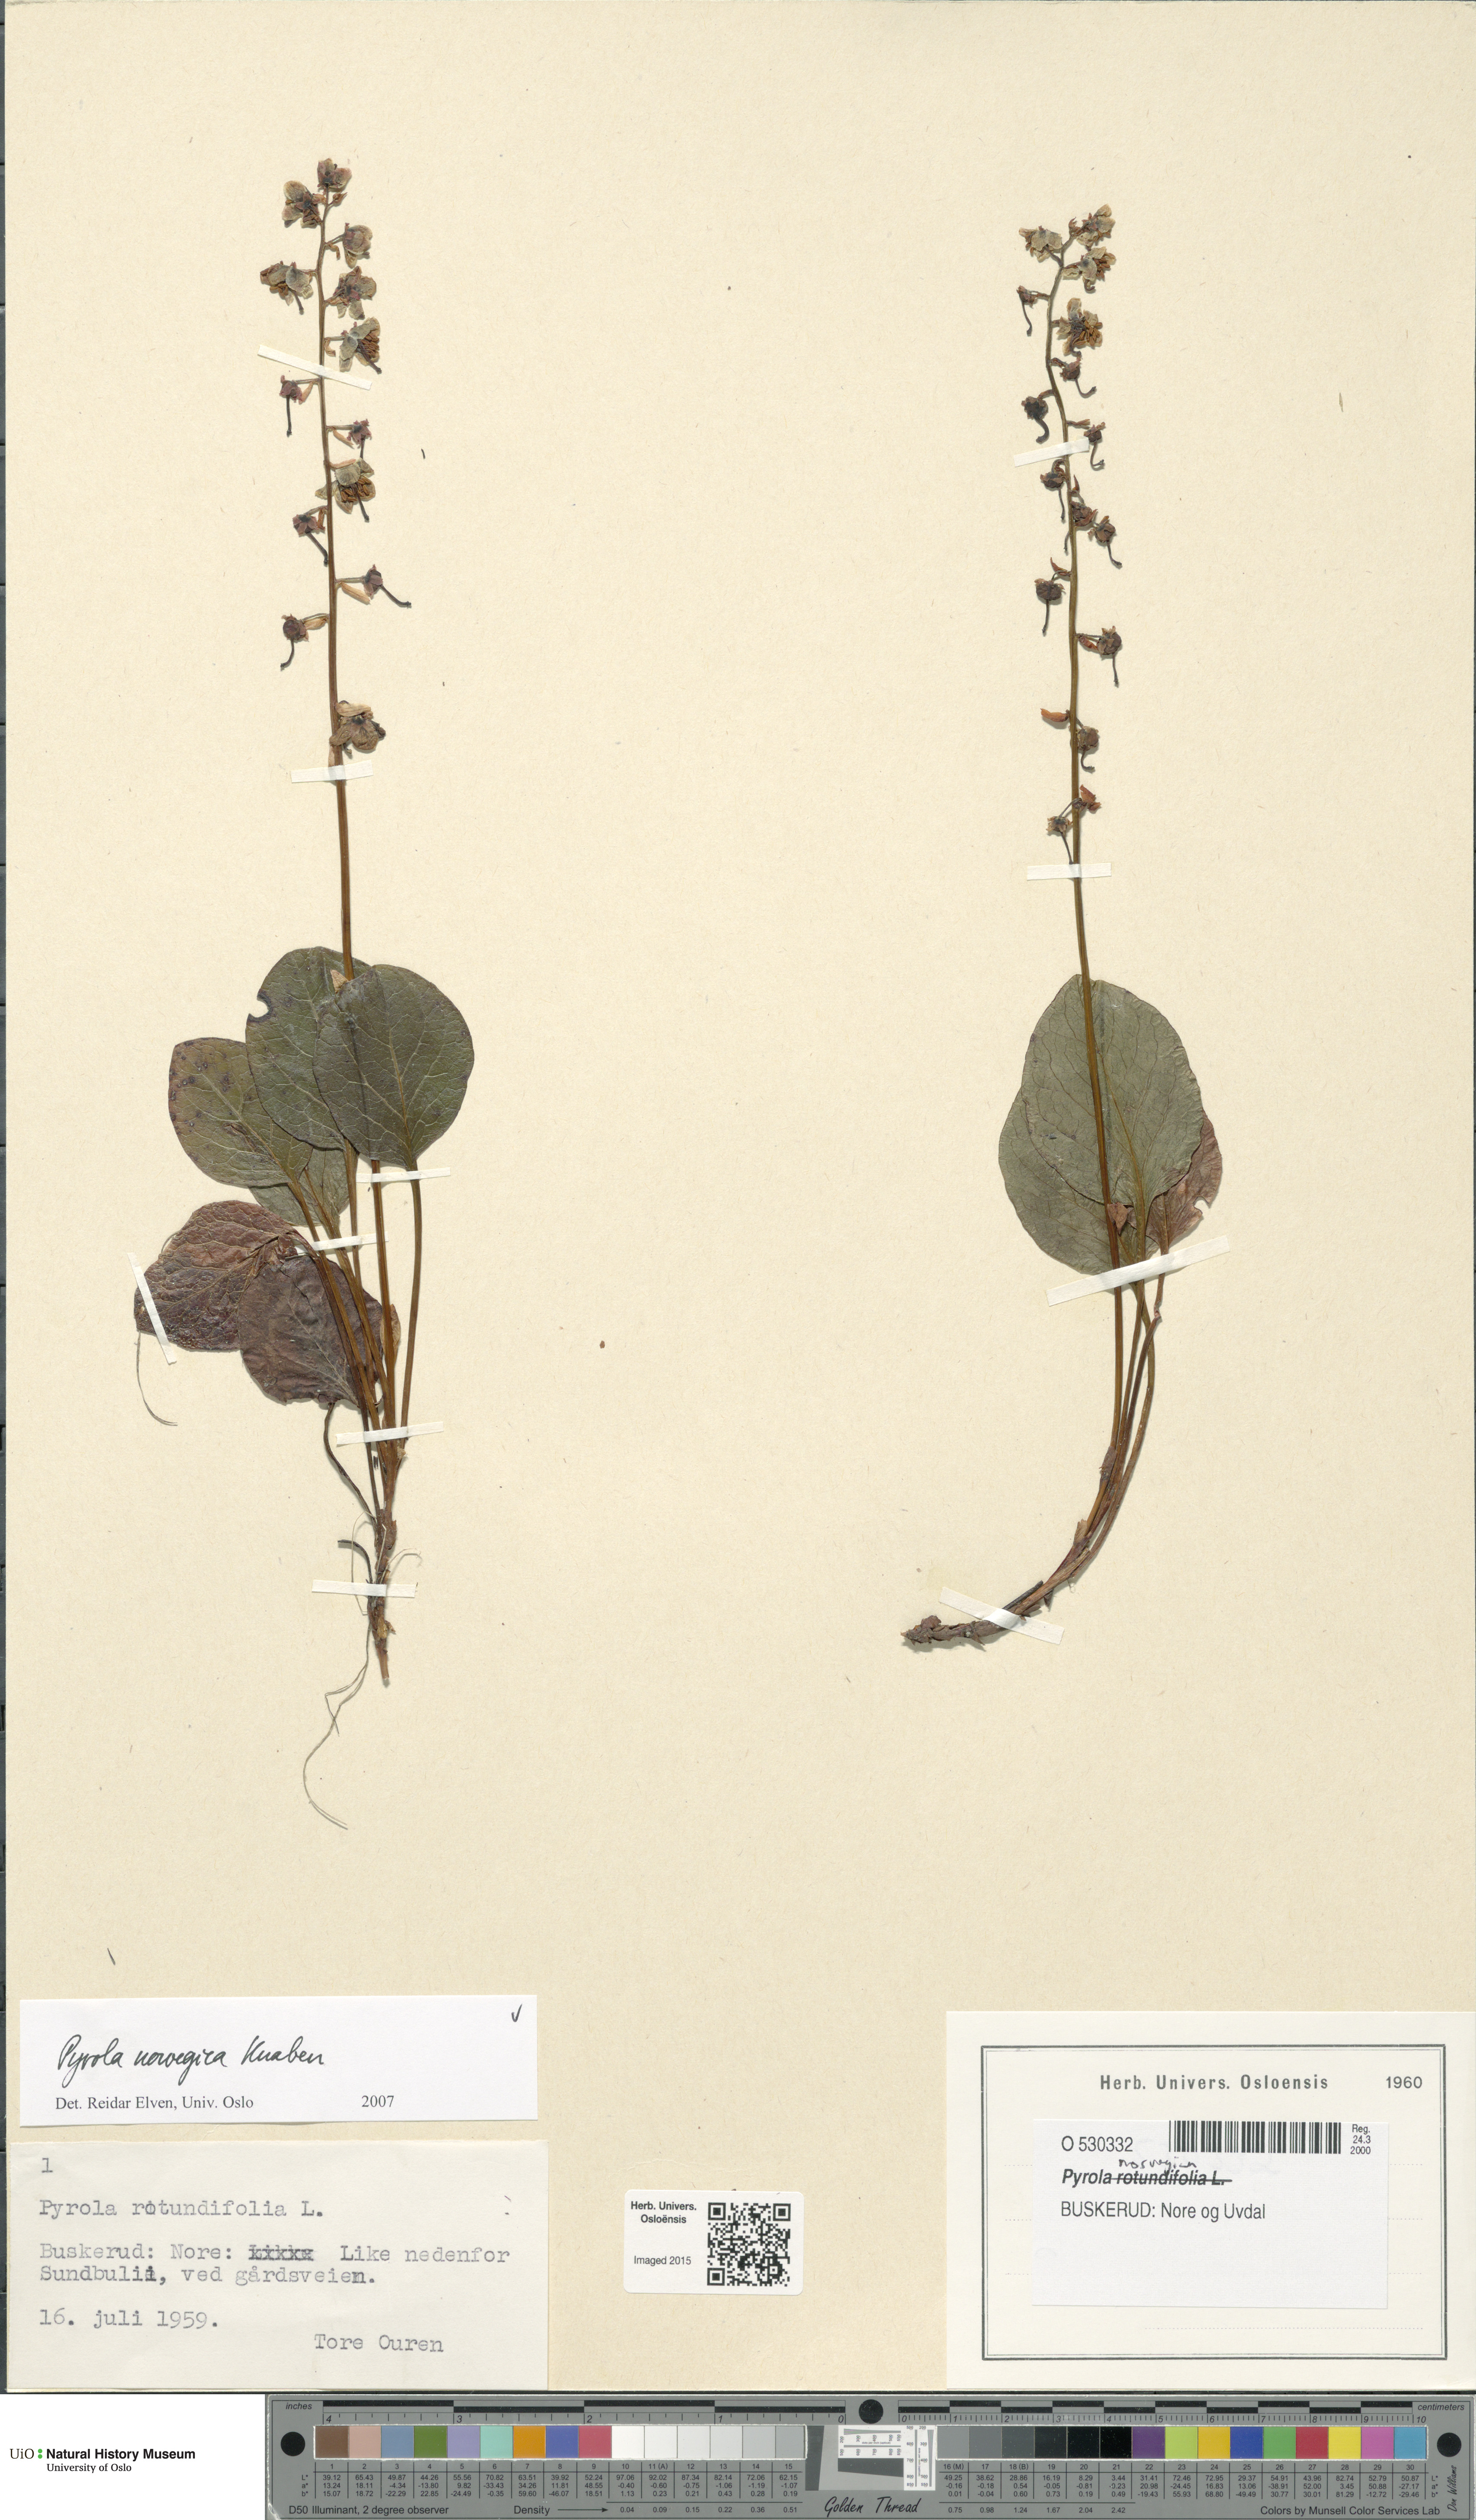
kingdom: Plantae
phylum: Tracheophyta
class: Magnoliopsida
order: Ericales
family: Ericaceae
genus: Pyrola
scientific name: Pyrola rotundifolia
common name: Round-leaved wintergreen
